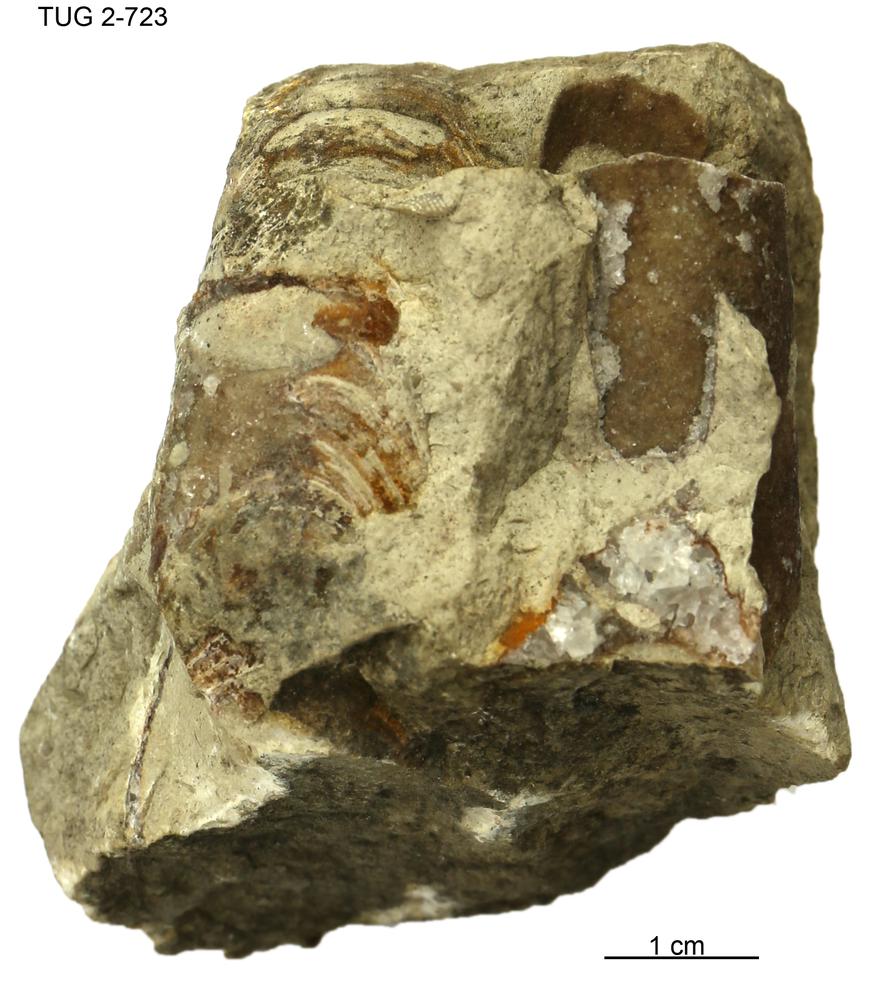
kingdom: Animalia
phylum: Mollusca
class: Cephalopoda
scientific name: Cephalopoda
